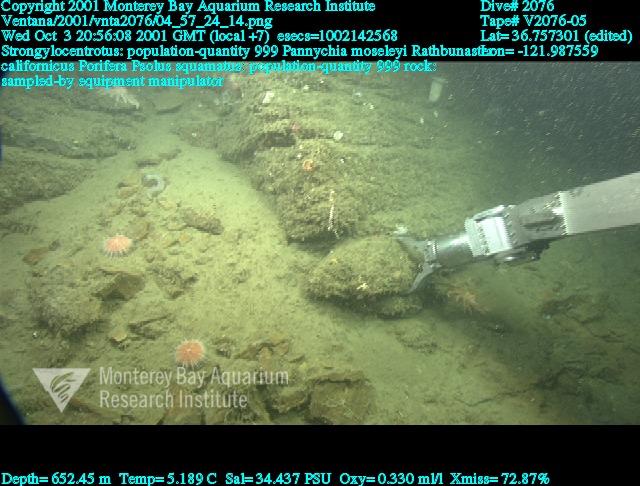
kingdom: Animalia
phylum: Porifera
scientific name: Porifera
